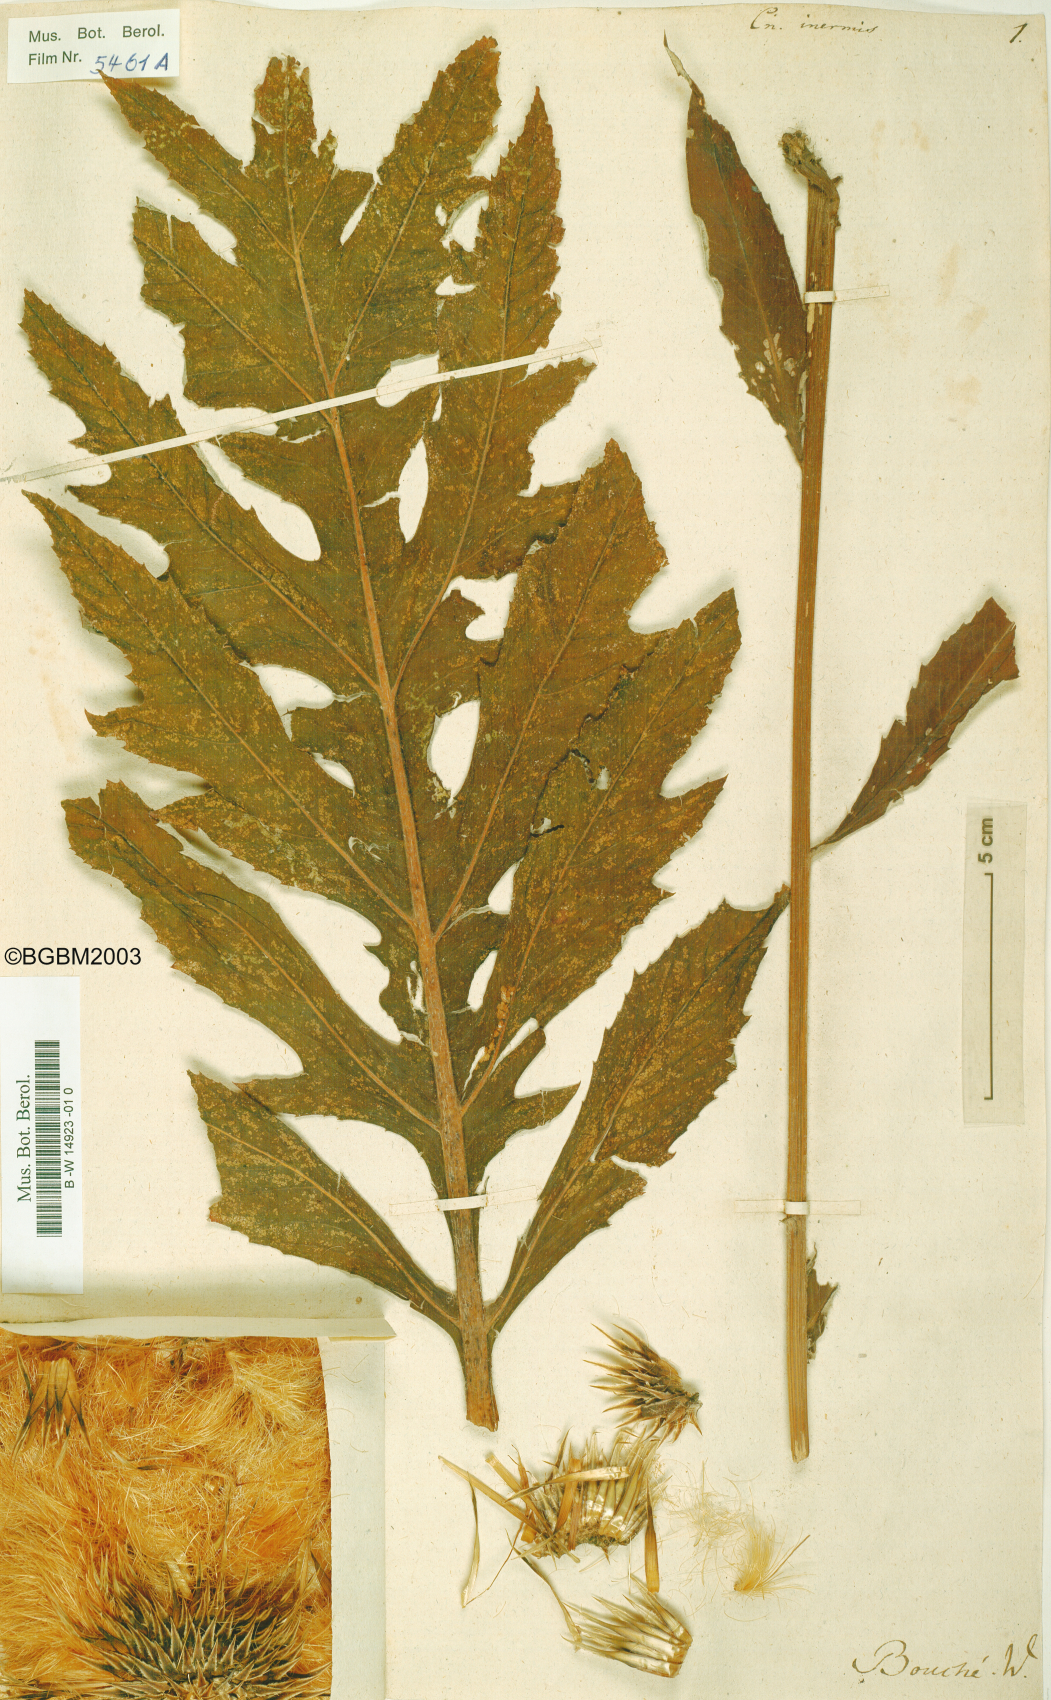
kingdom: Plantae
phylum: Tracheophyta
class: Magnoliopsida
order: Asterales
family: Asteraceae
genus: Leuzea
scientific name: Leuzea centauroides
